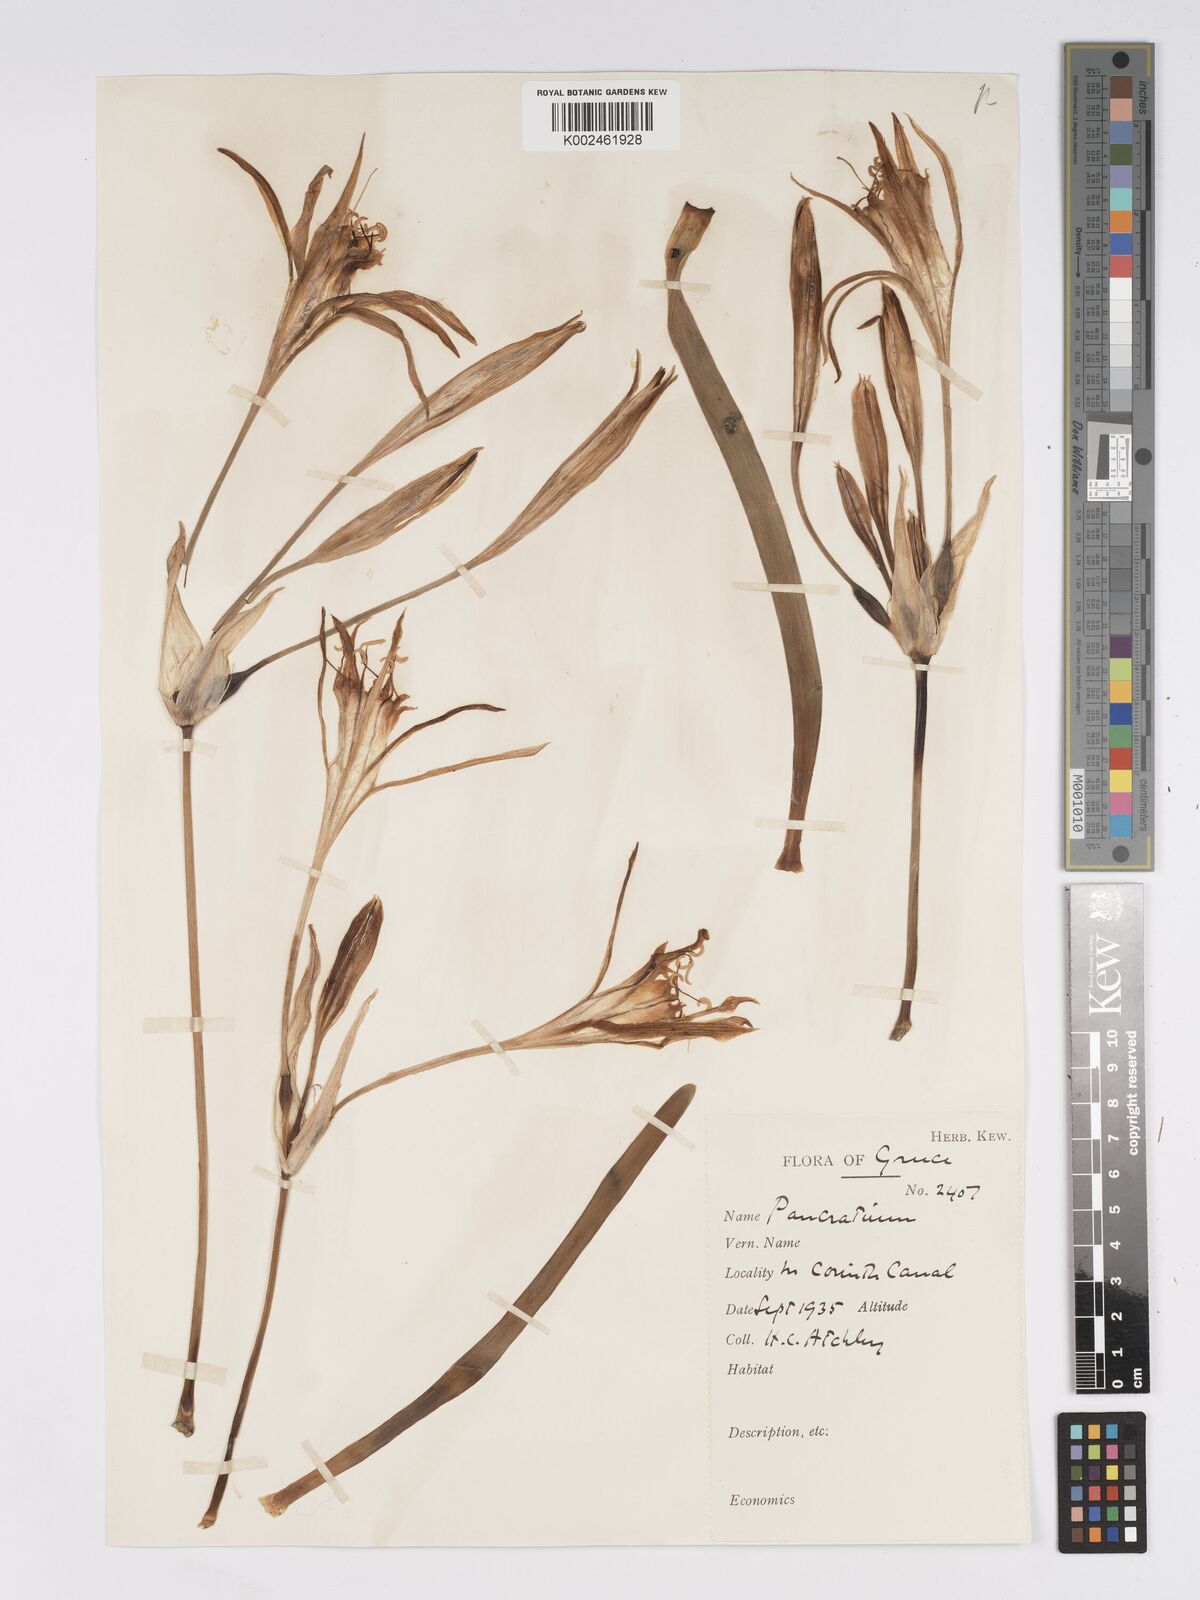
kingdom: Plantae
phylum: Tracheophyta
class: Liliopsida
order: Asparagales
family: Amaryllidaceae
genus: Pancratium
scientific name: Pancratium maritimum
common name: Sea-daffodil
